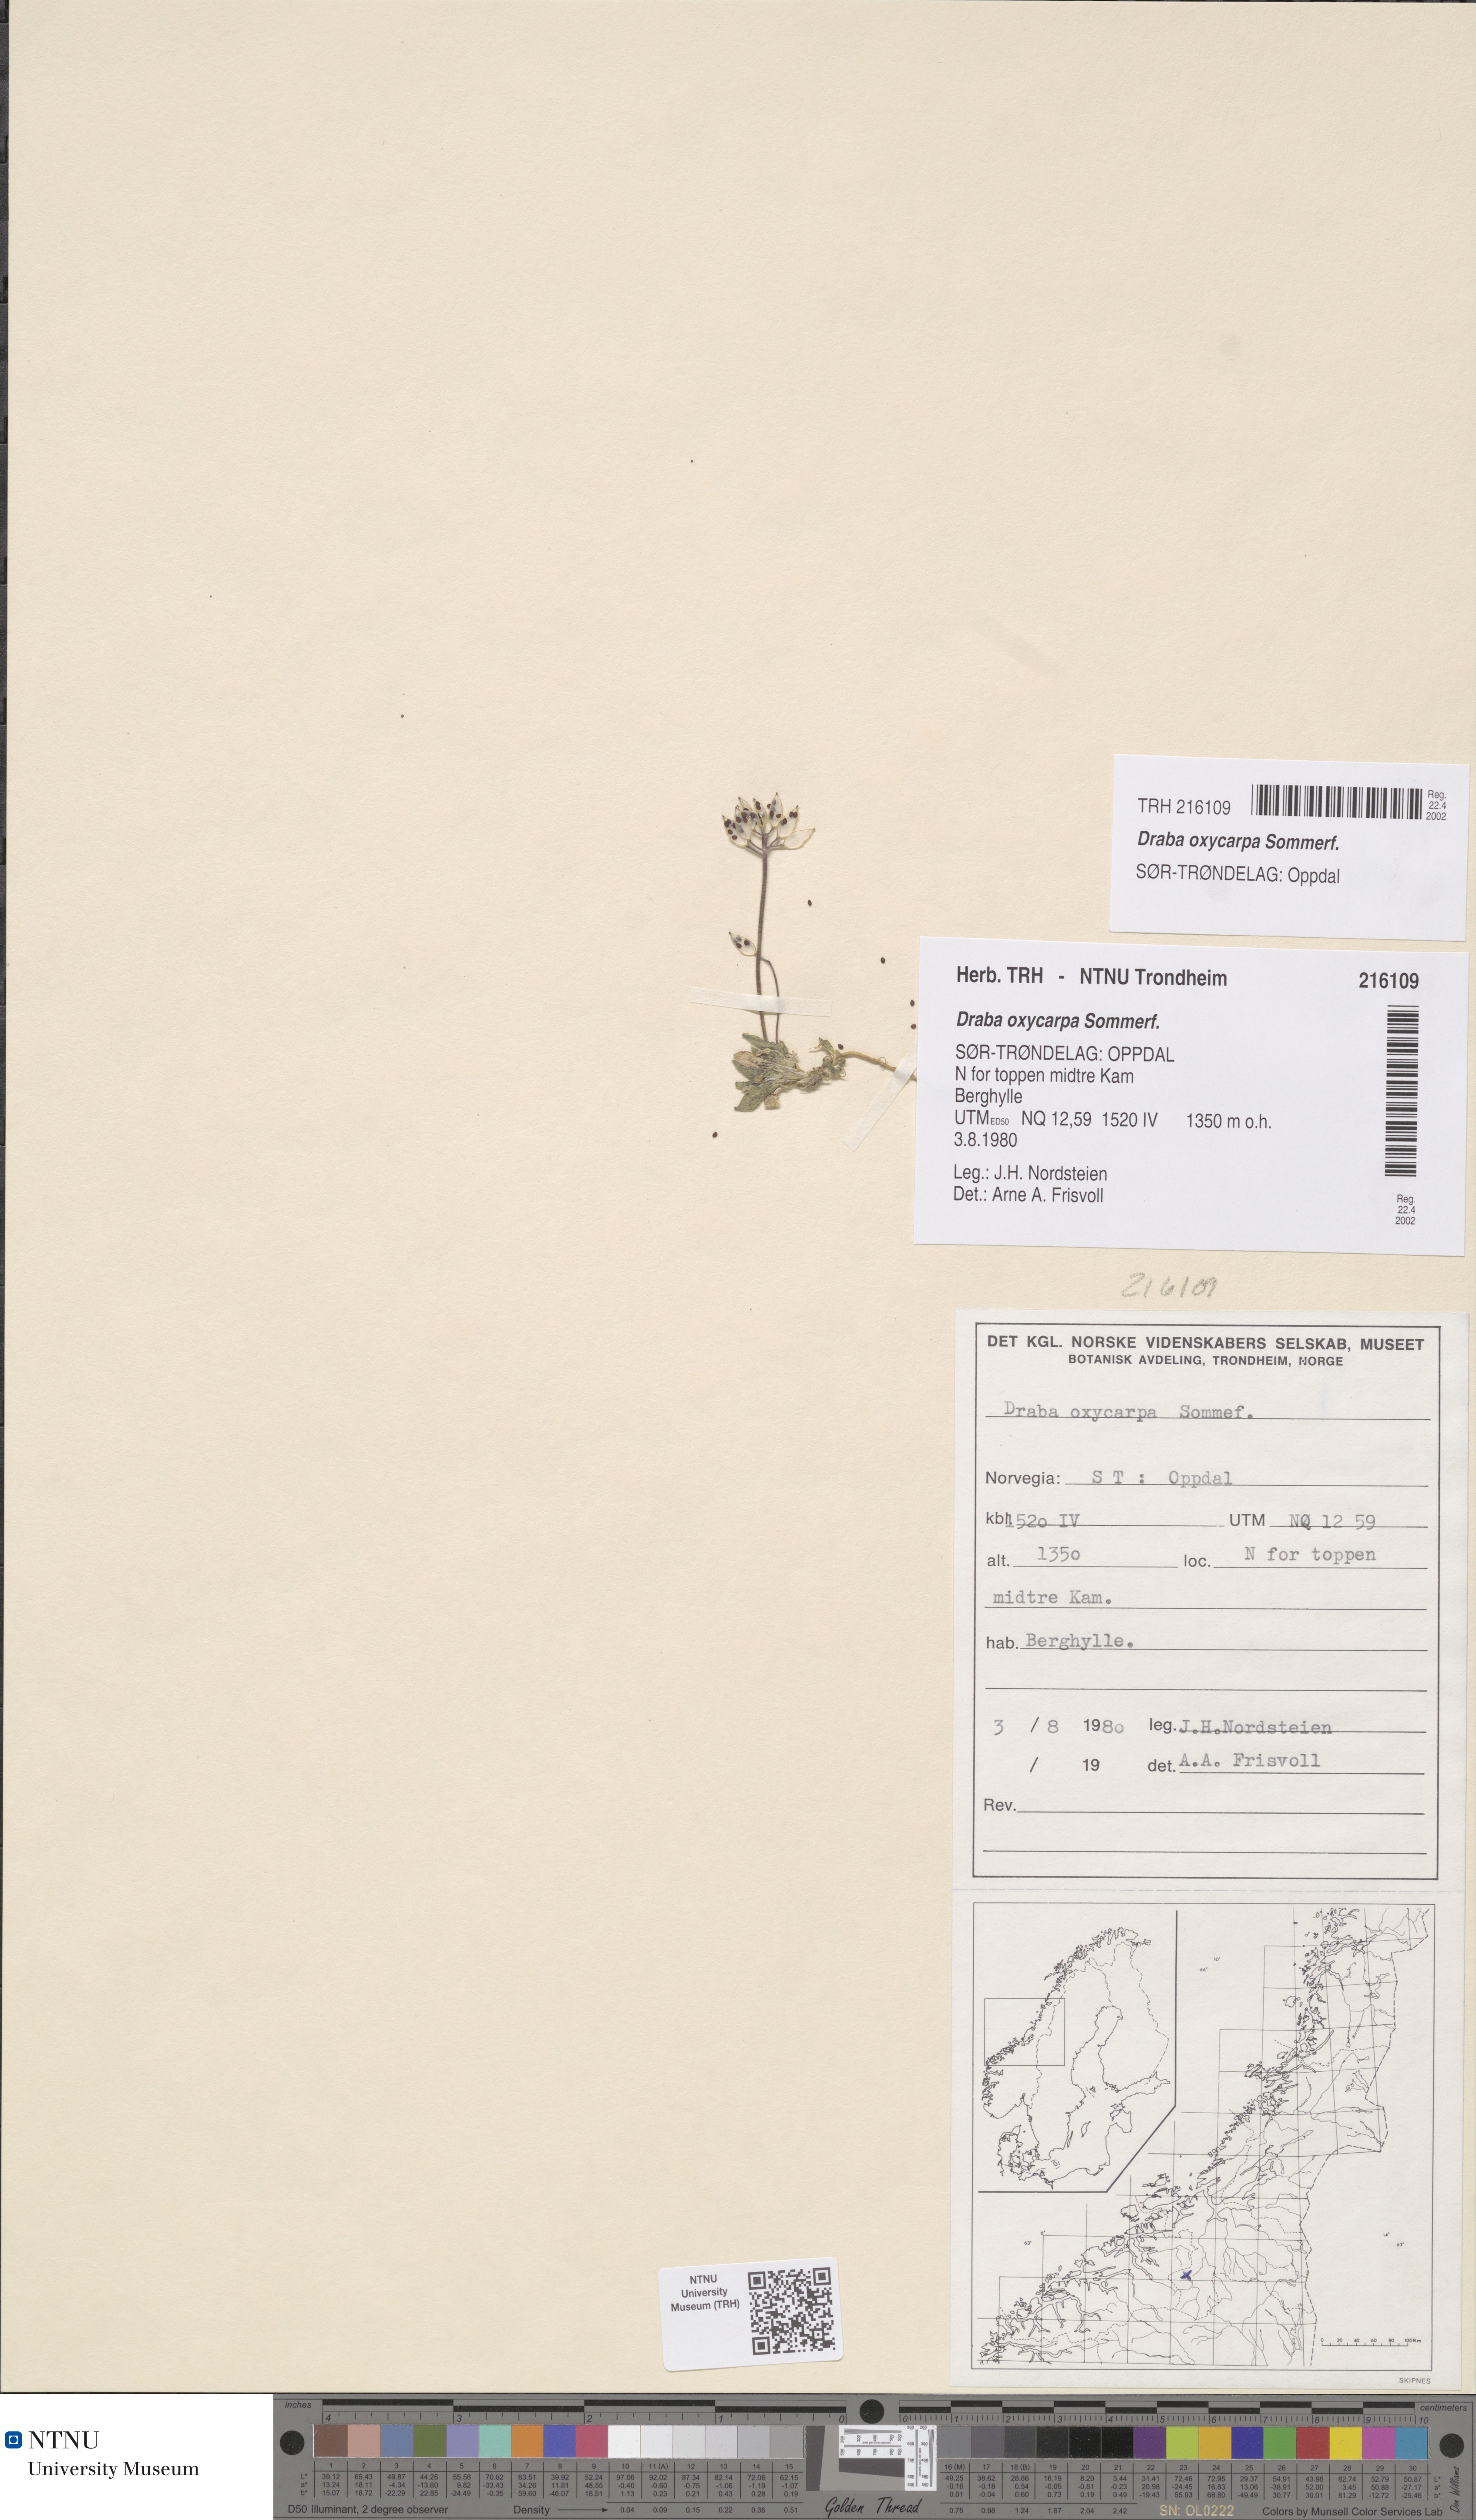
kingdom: Plantae
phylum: Tracheophyta
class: Magnoliopsida
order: Brassicales
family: Brassicaceae
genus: Draba
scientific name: Draba oxycarpa
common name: Sharp-fruited whitlow-grass
